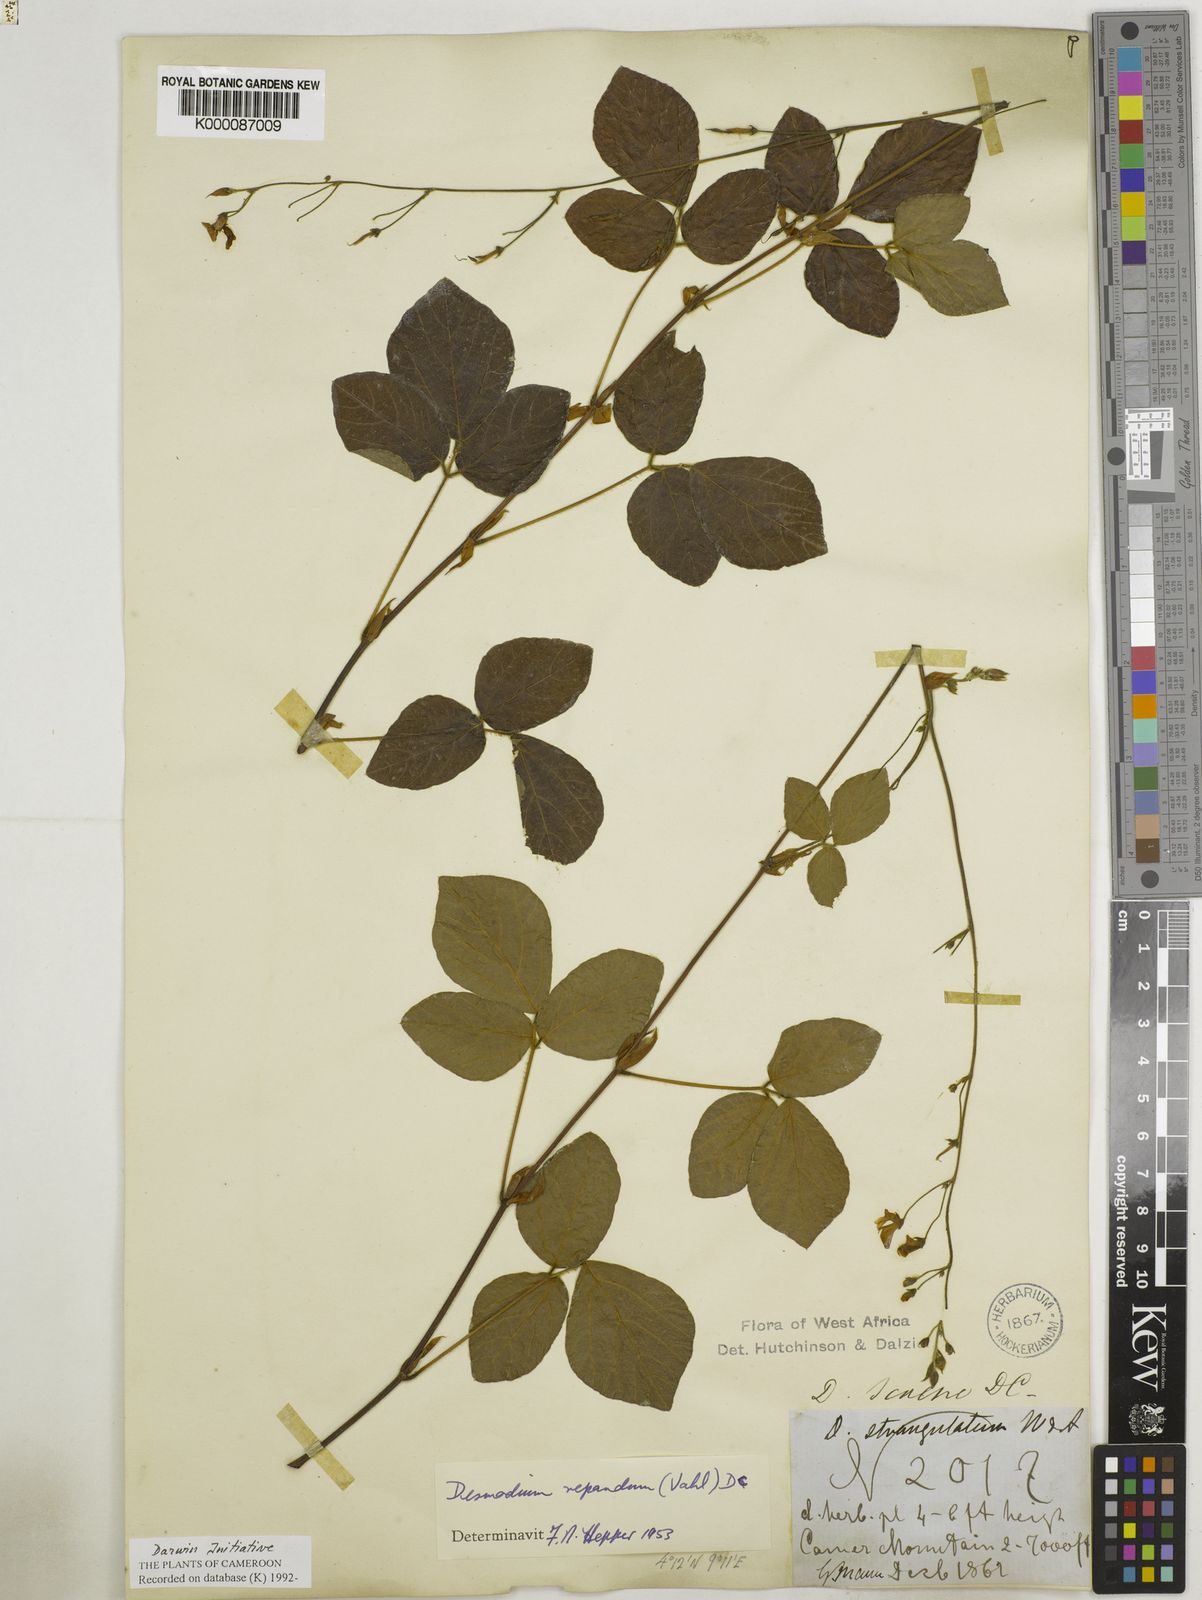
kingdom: Plantae
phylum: Tracheophyta
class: Magnoliopsida
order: Fabales
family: Fabaceae
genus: Desmodium
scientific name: Desmodium
